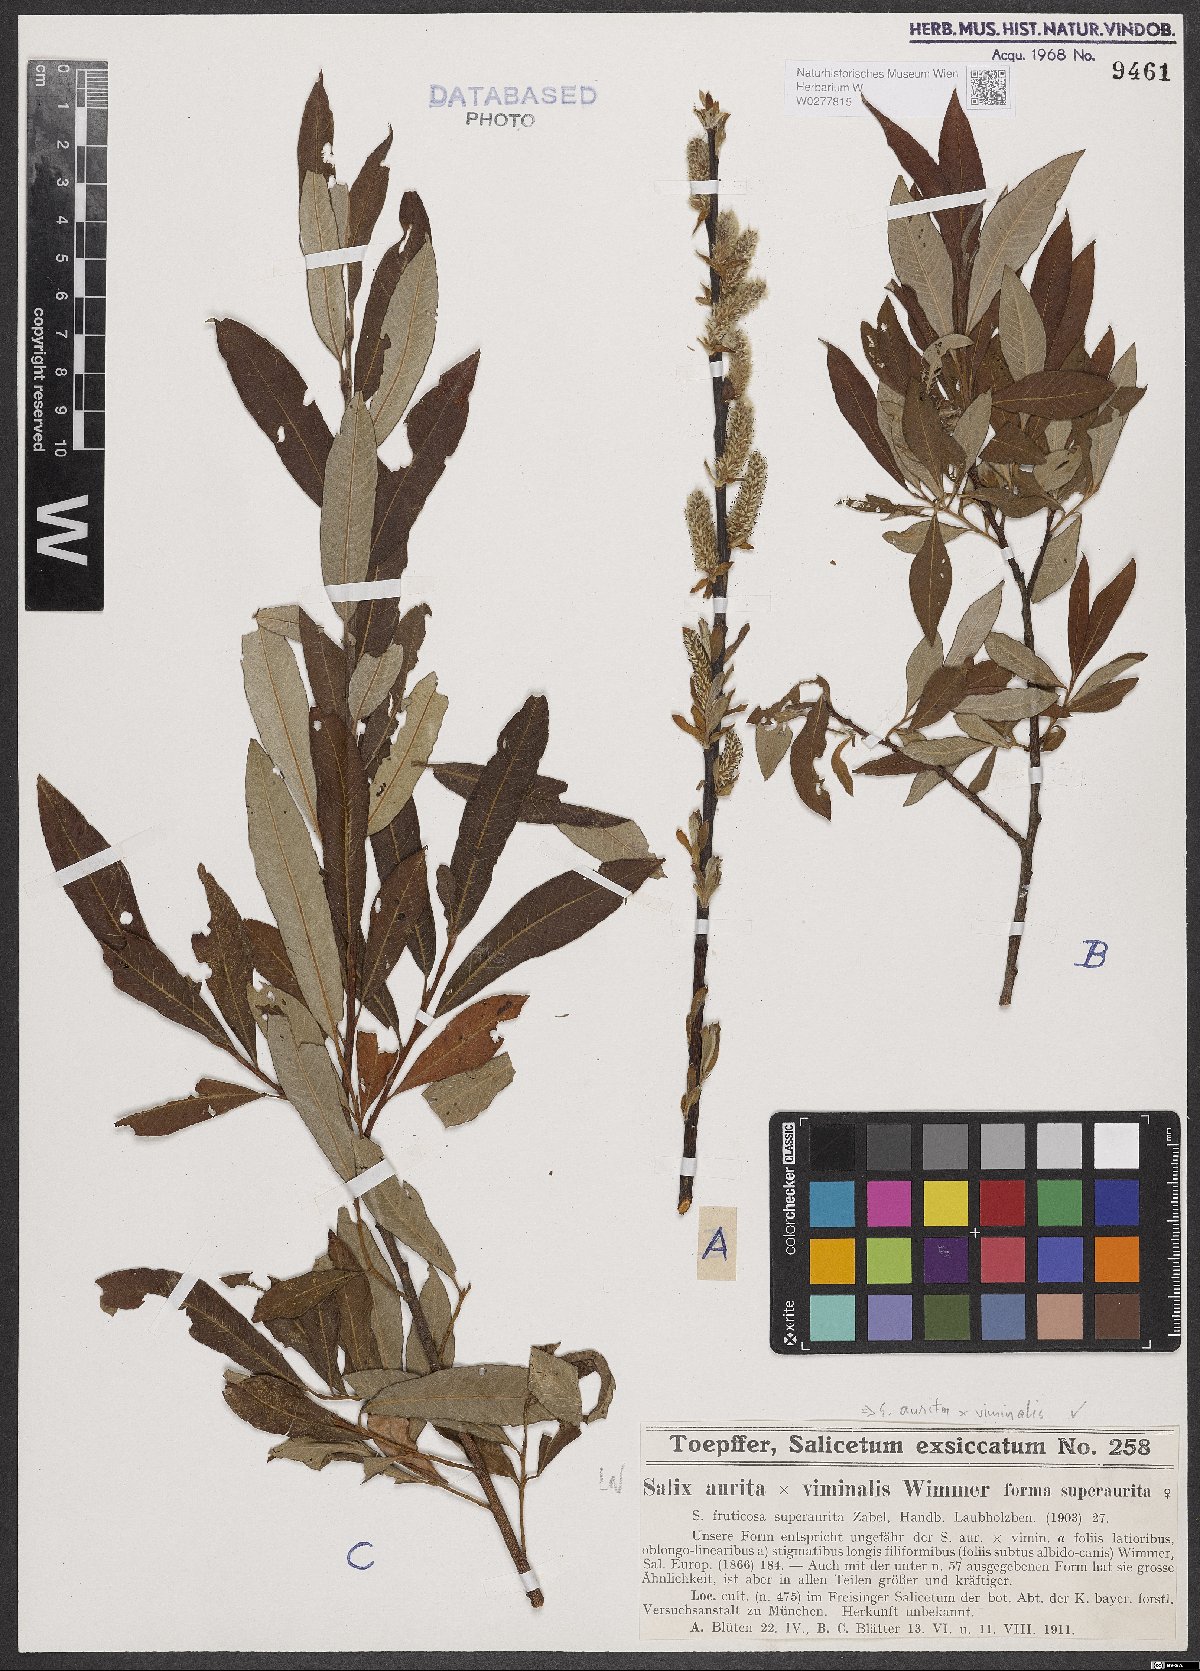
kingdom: Plantae
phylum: Tracheophyta
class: Magnoliopsida
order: Malpighiales
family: Salicaceae
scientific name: Salicaceae
